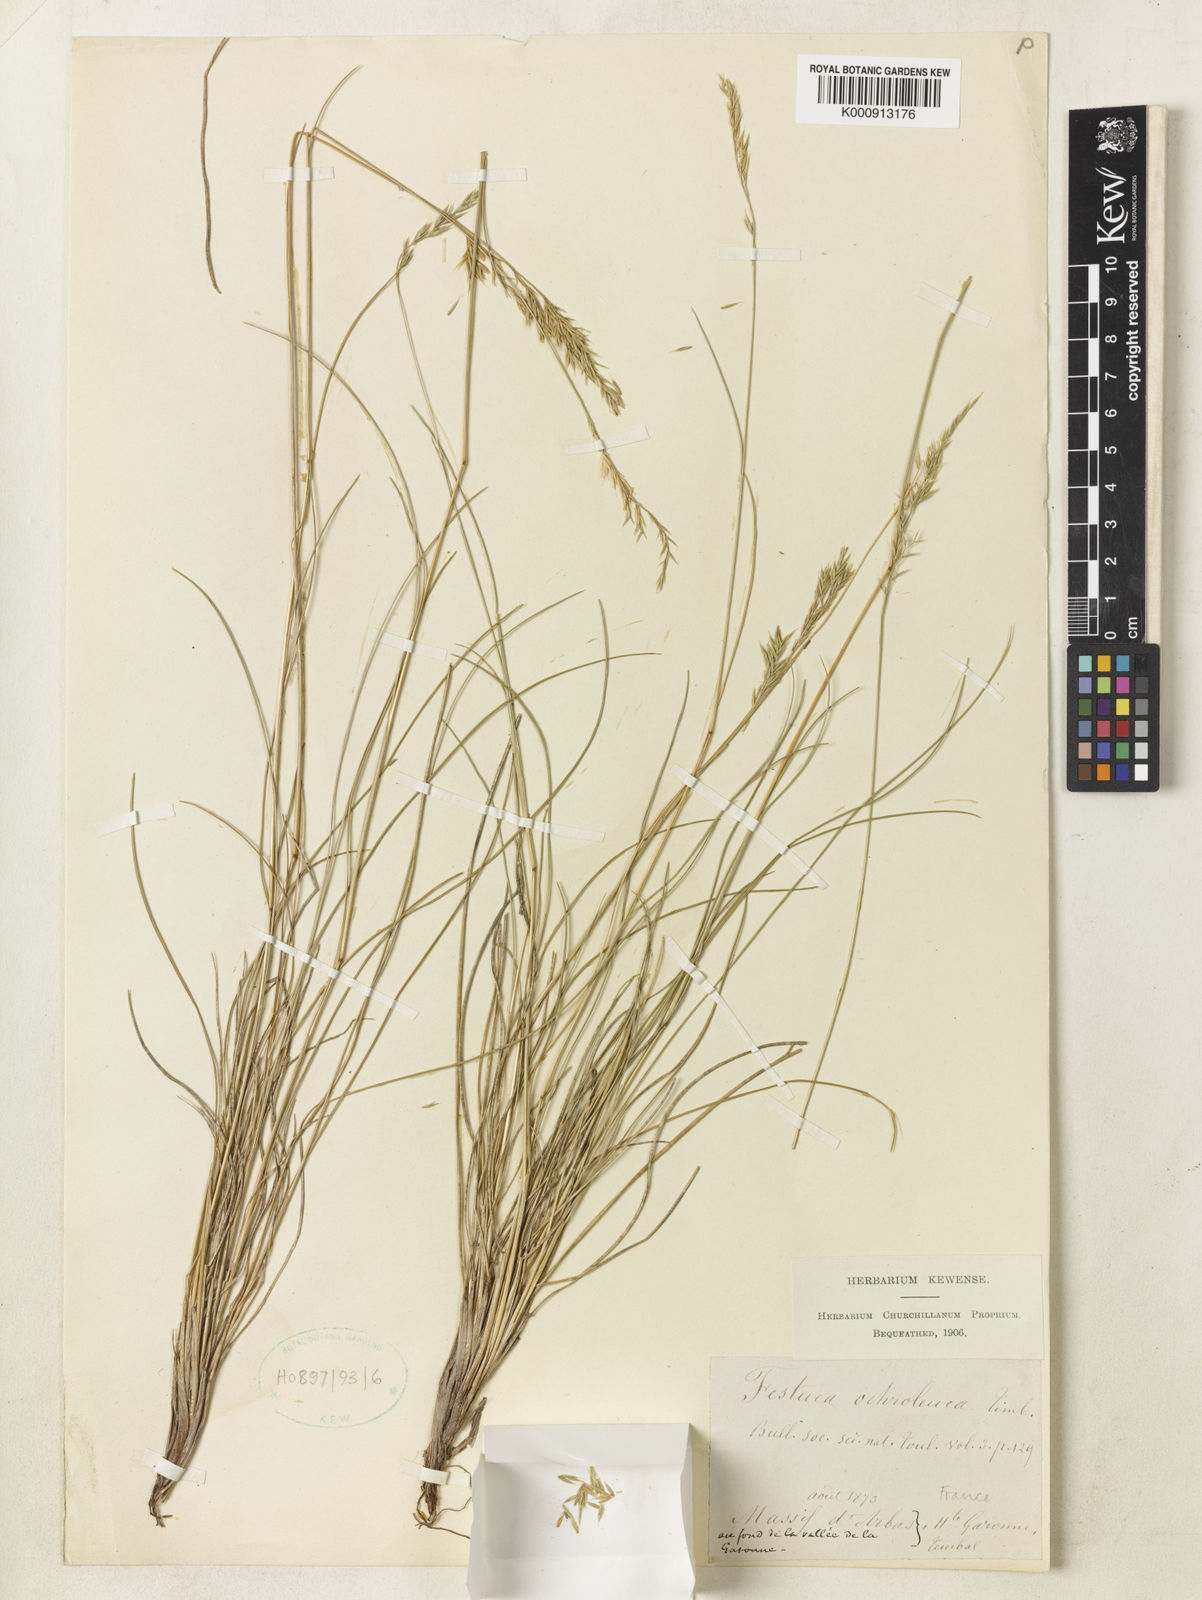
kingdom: Plantae
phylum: Tracheophyta
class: Liliopsida
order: Poales
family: Poaceae
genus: Festuca
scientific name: Festuca ochroleuca
